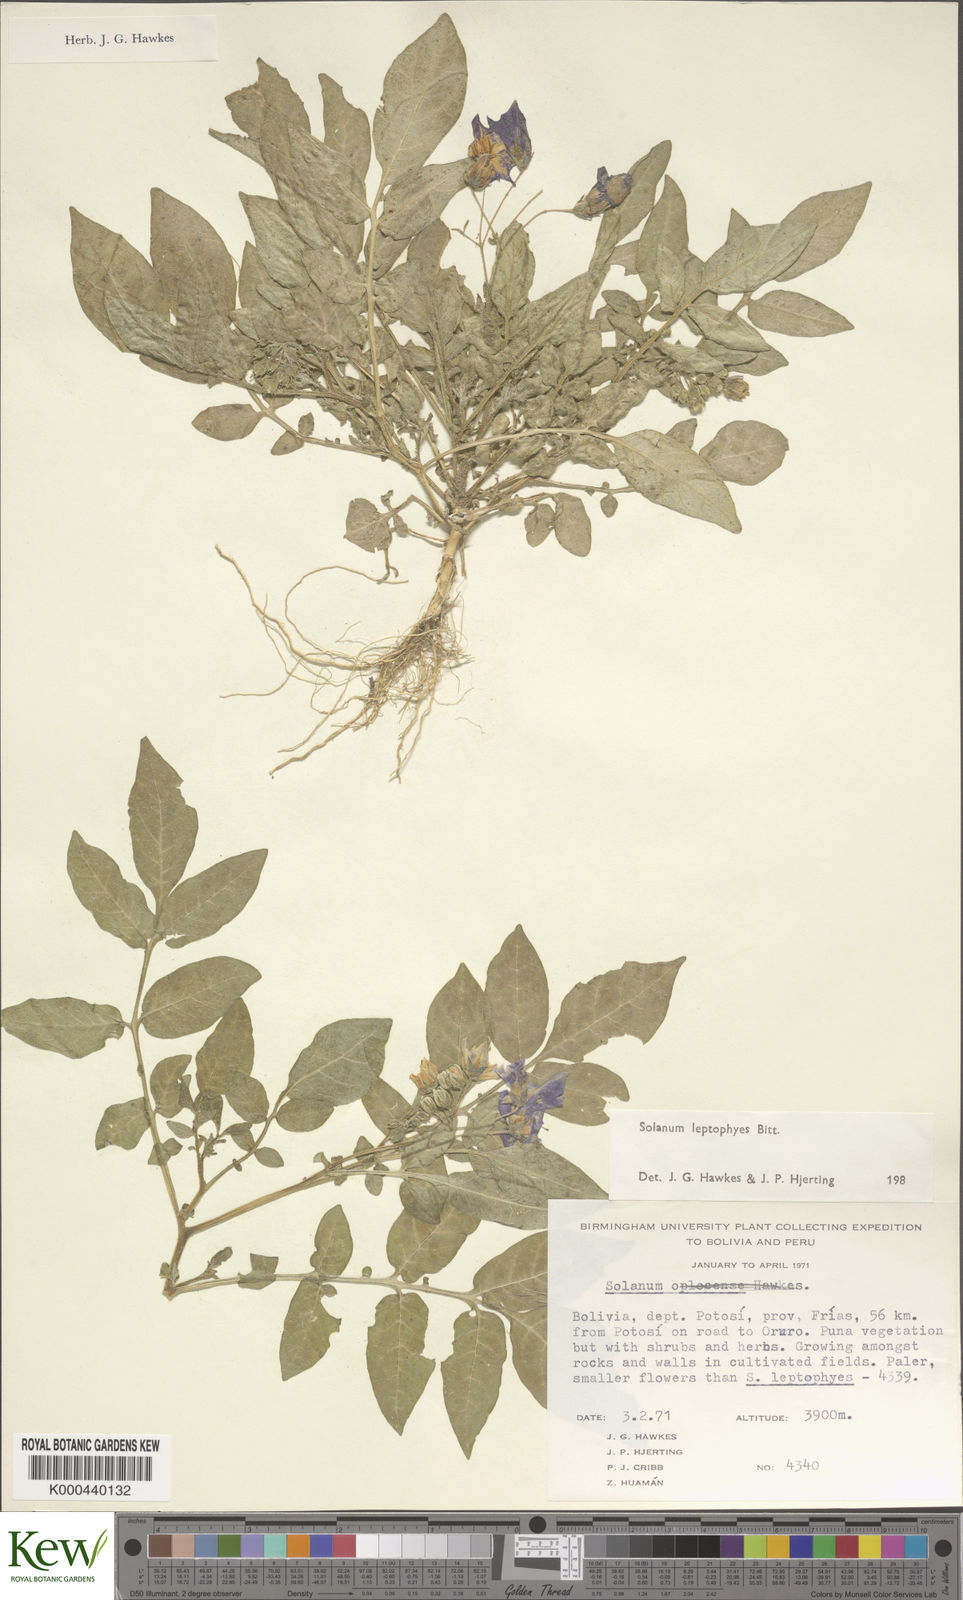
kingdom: Plantae
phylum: Tracheophyta
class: Magnoliopsida
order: Solanales
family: Solanaceae
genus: Solanum
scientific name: Solanum brevicaule
